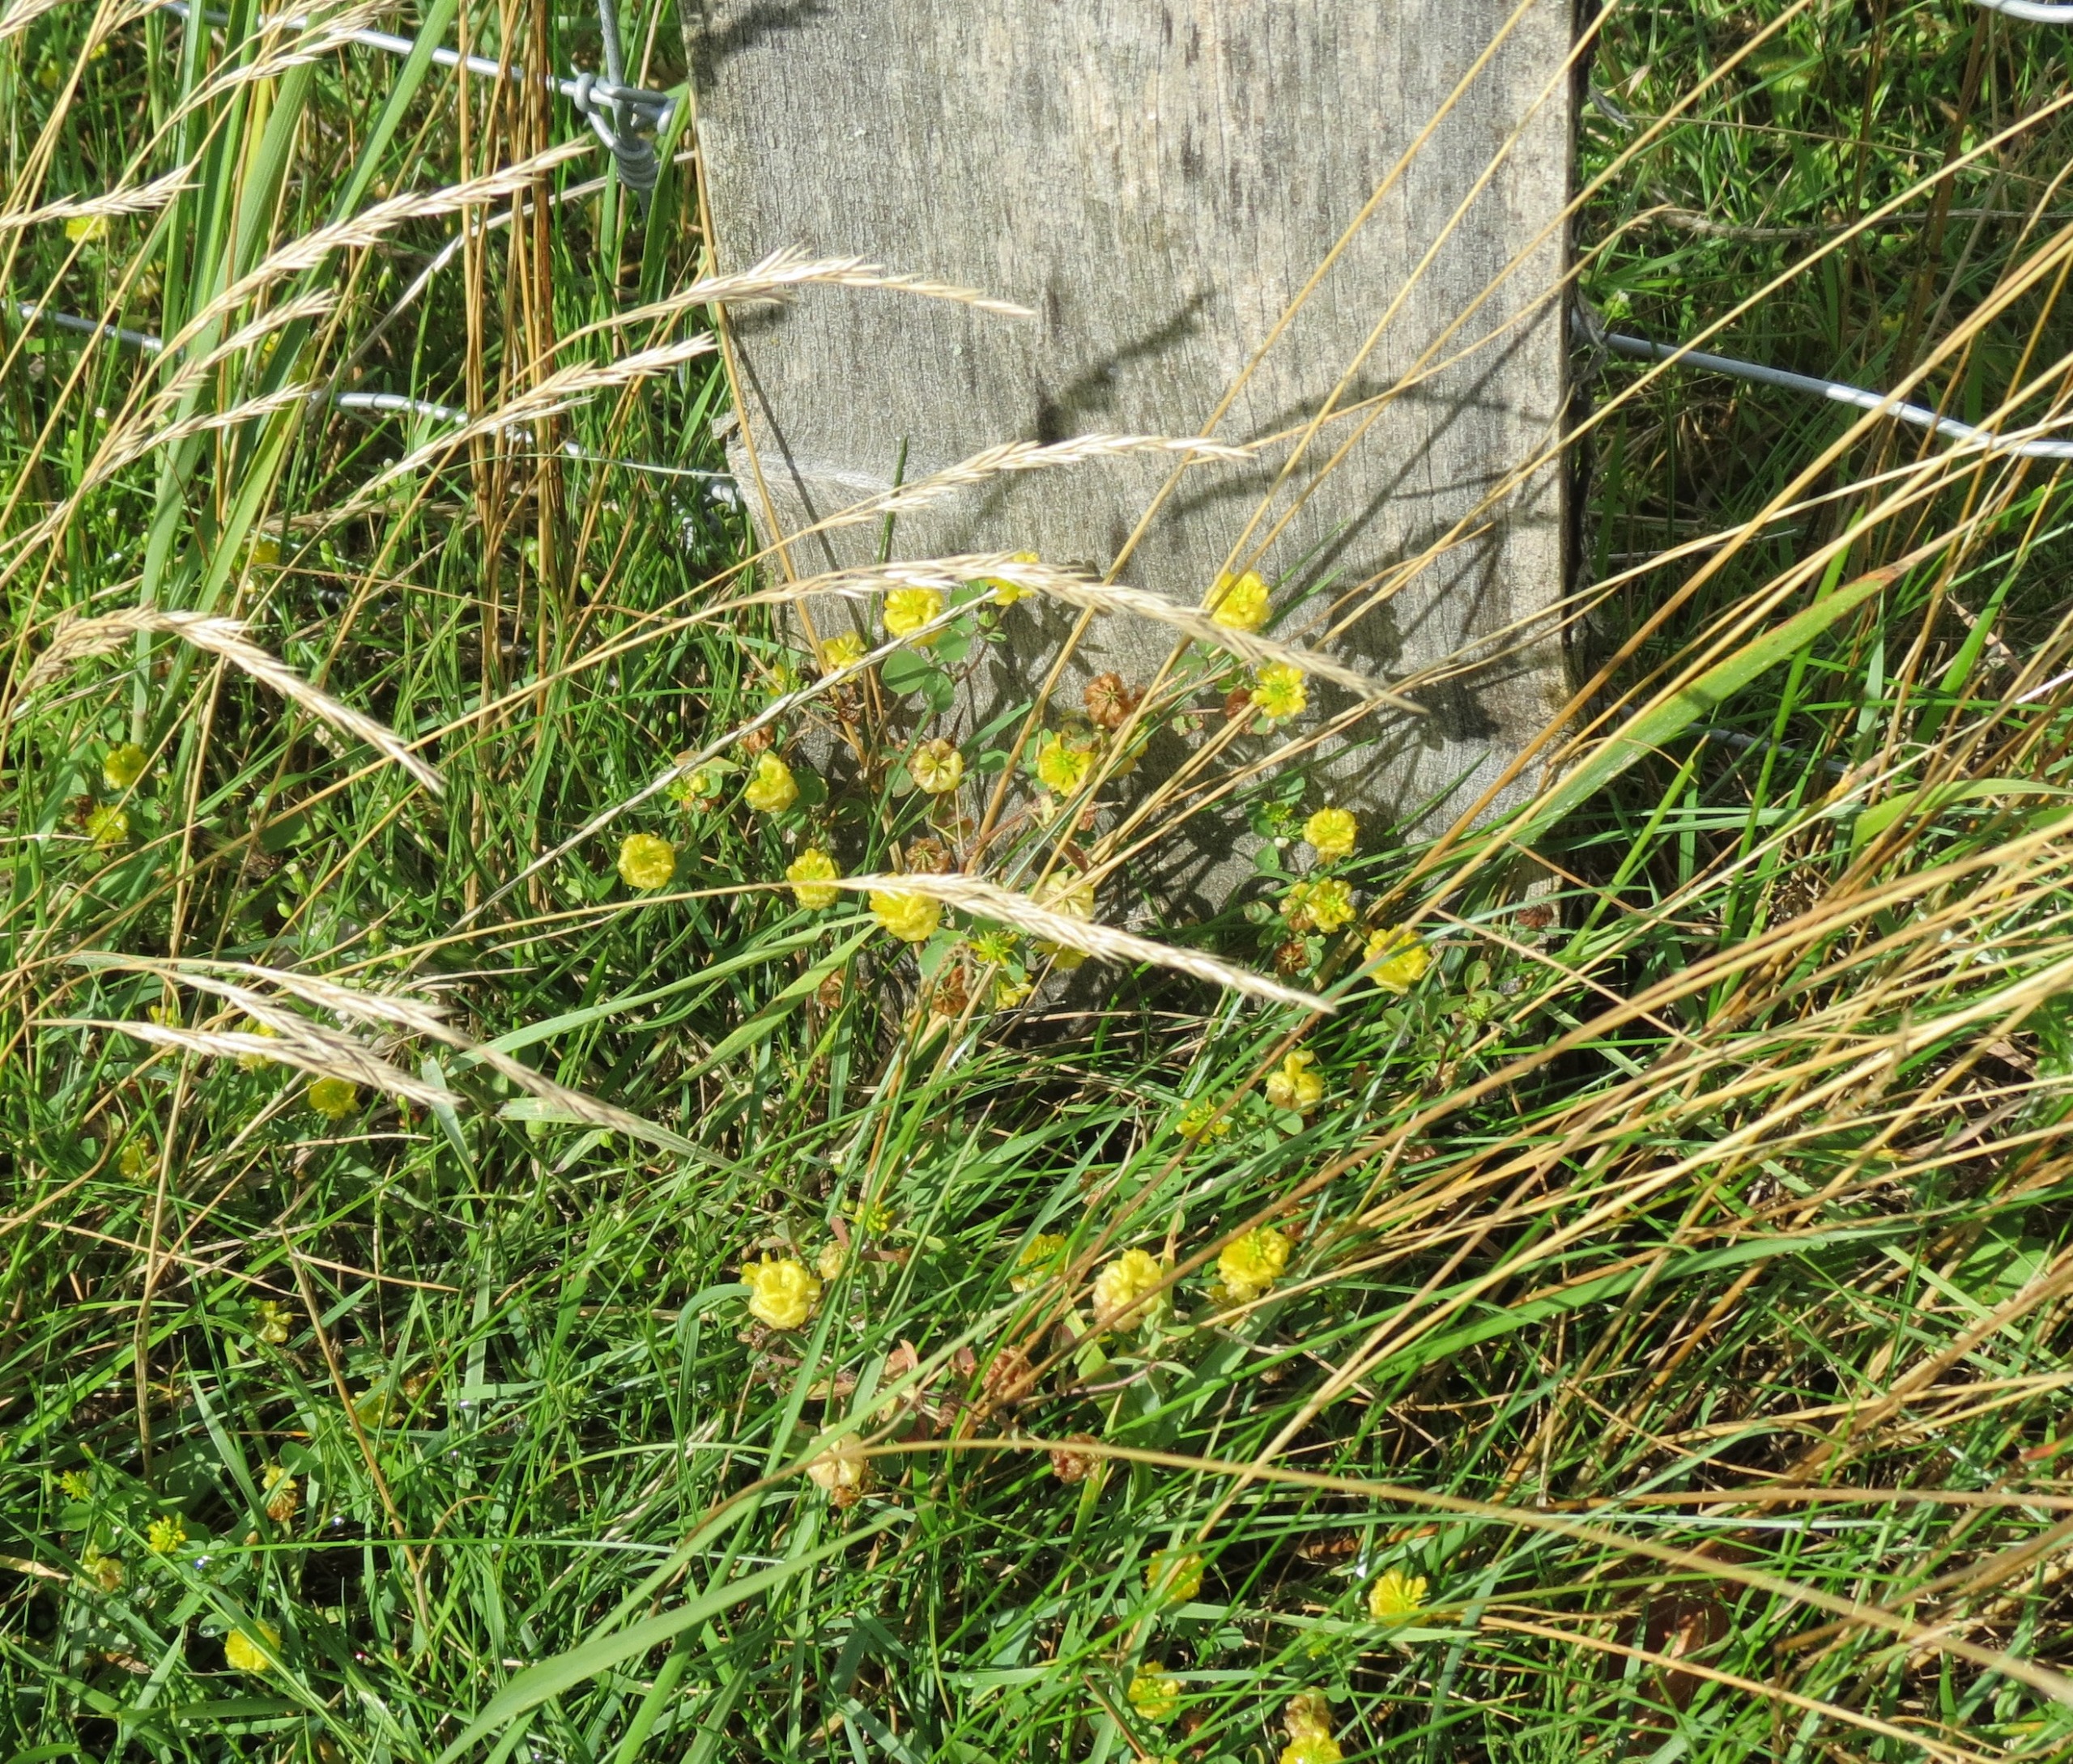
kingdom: Plantae
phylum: Tracheophyta
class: Magnoliopsida
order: Fabales
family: Fabaceae
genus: Trifolium
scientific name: Trifolium campestre
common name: Gul kløver
